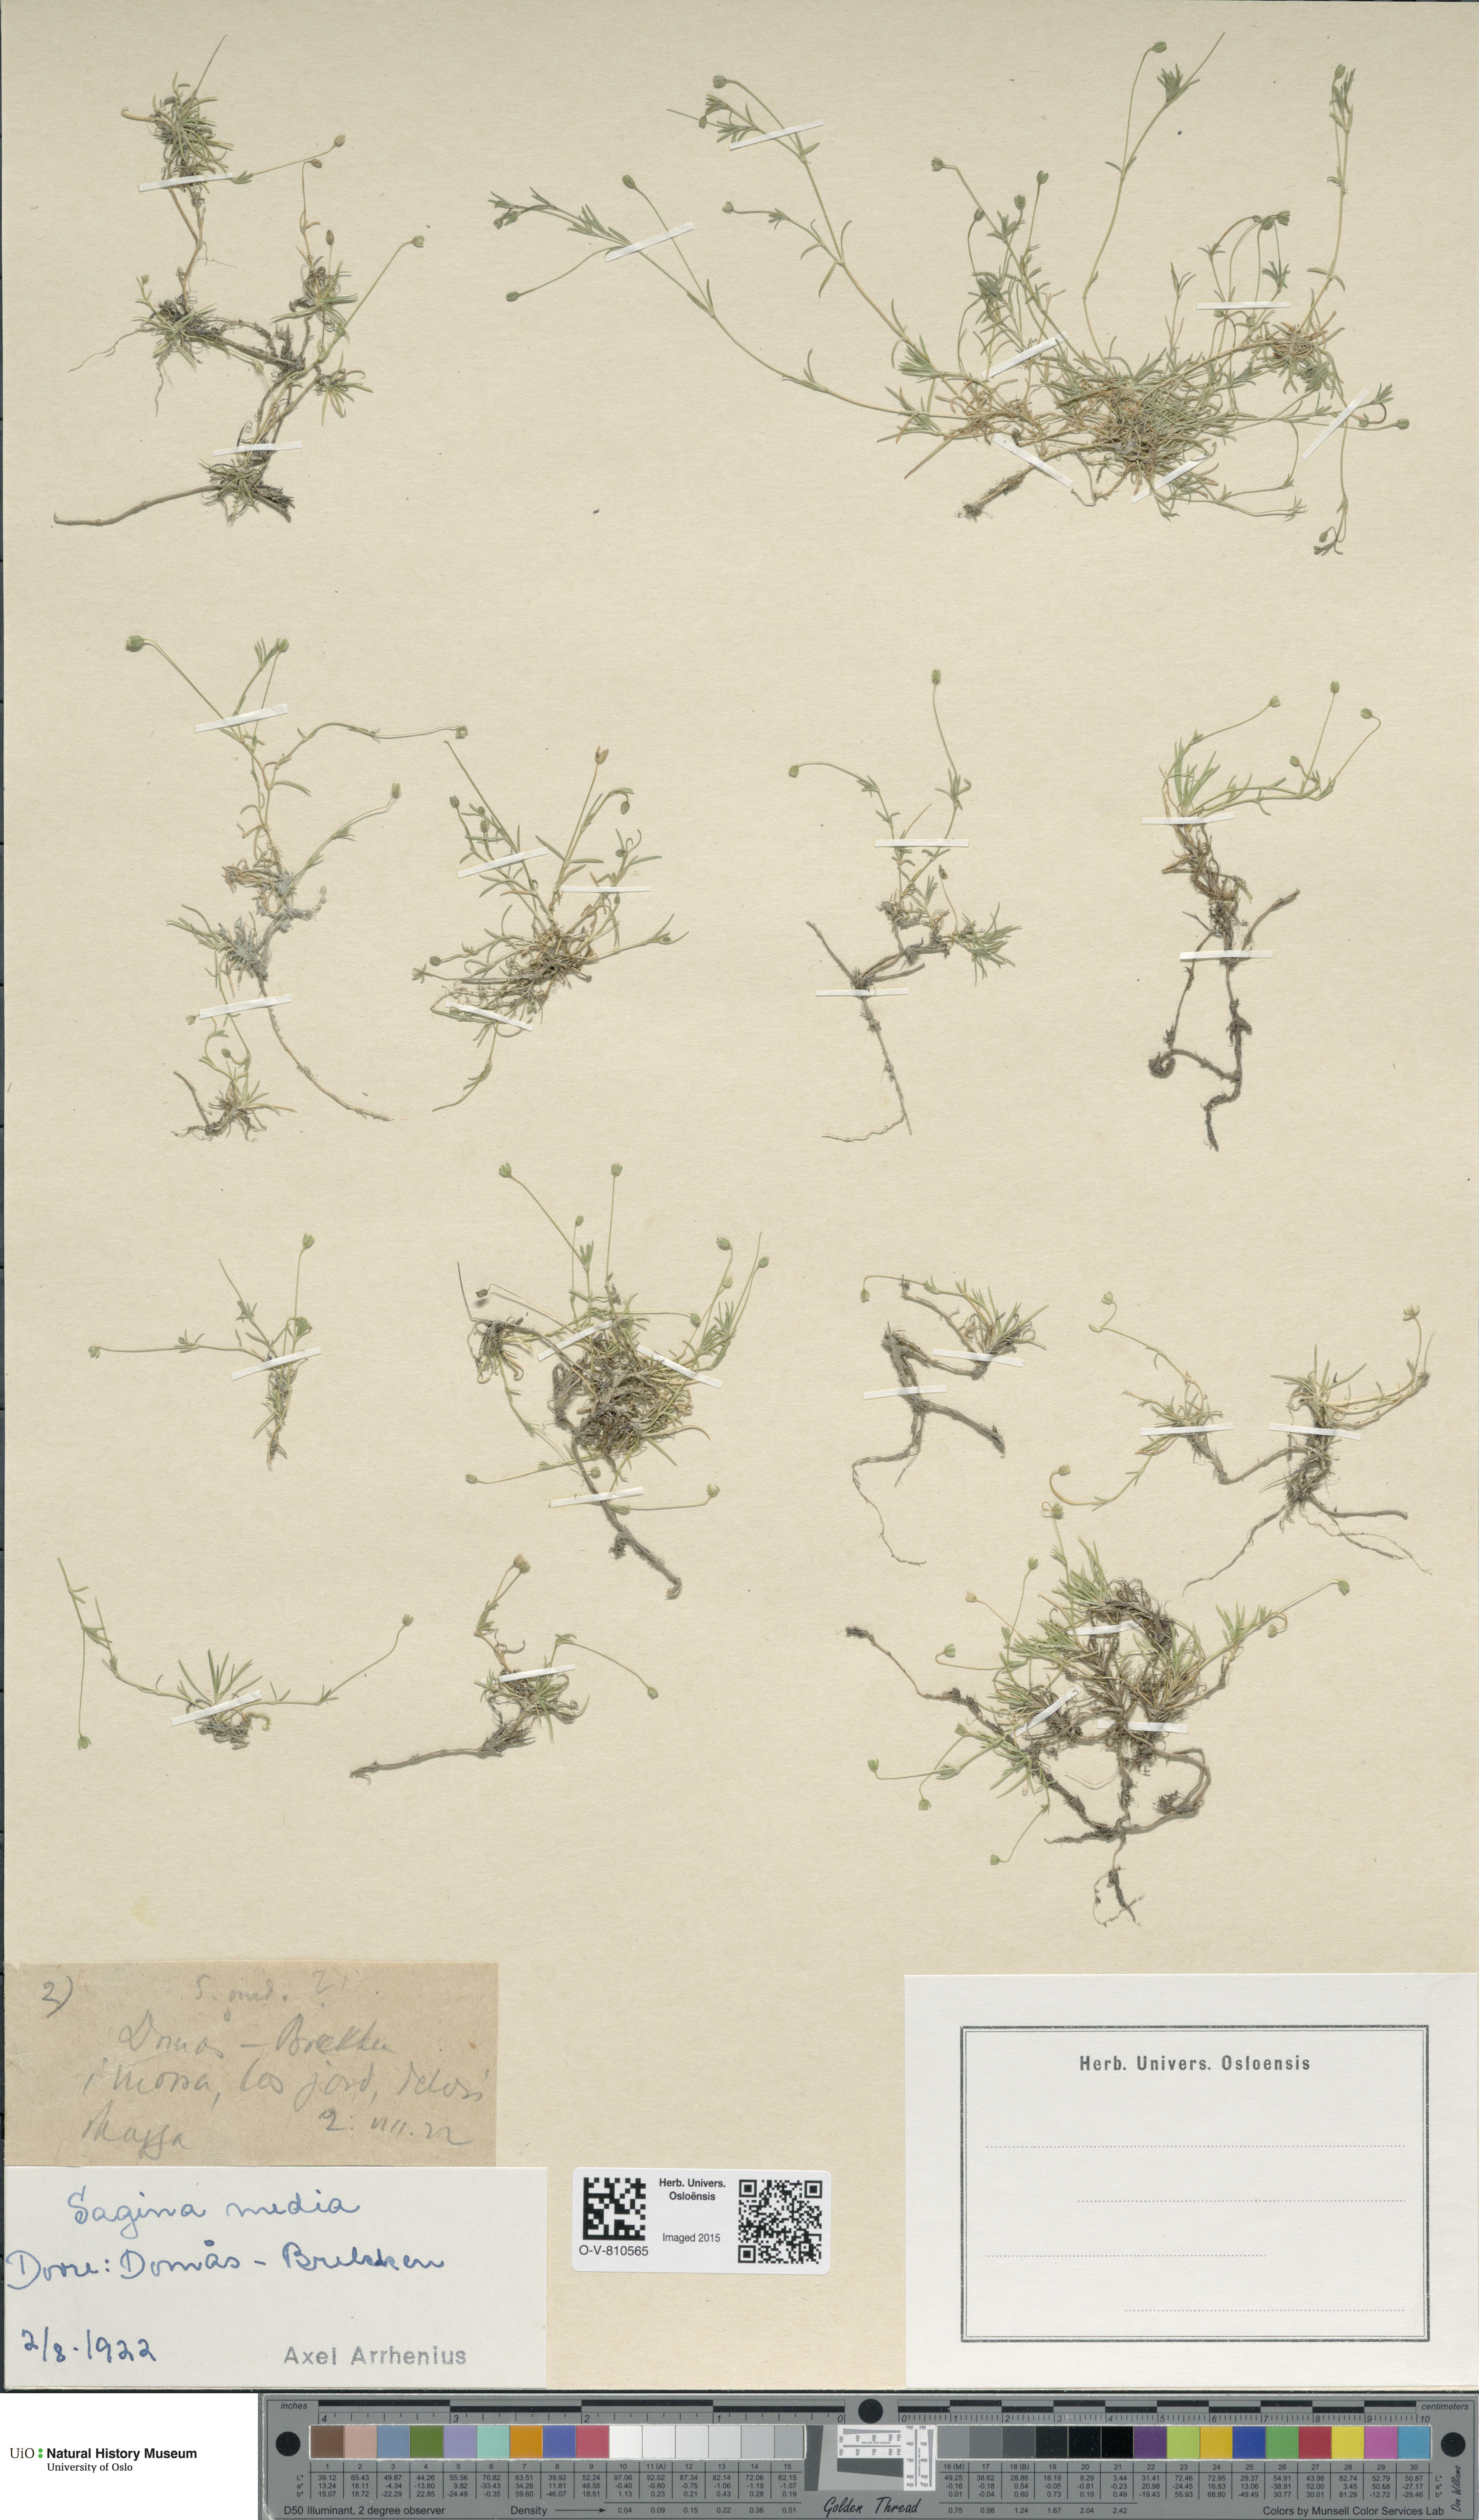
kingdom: Plantae
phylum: Tracheophyta
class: Magnoliopsida
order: Caryophyllales
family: Caryophyllaceae
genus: Sagina
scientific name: Sagina media
